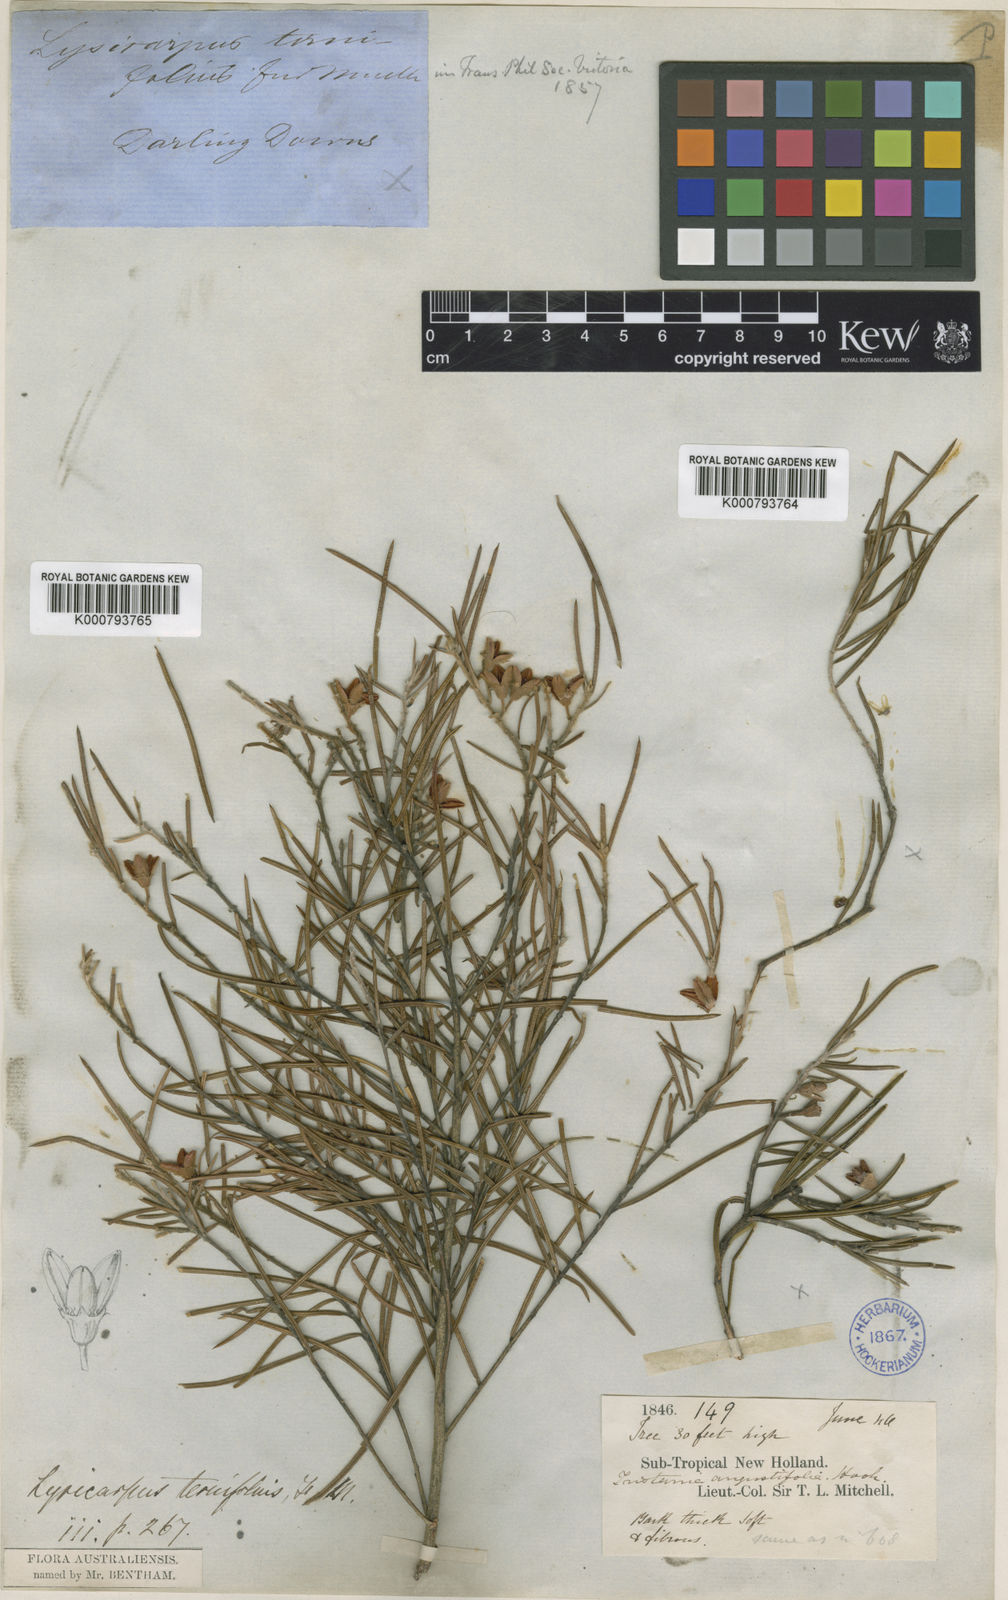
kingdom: Plantae
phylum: Tracheophyta
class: Magnoliopsida
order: Myrtales
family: Myrtaceae
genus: Lysicarpus
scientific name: Lysicarpus angustifolius
